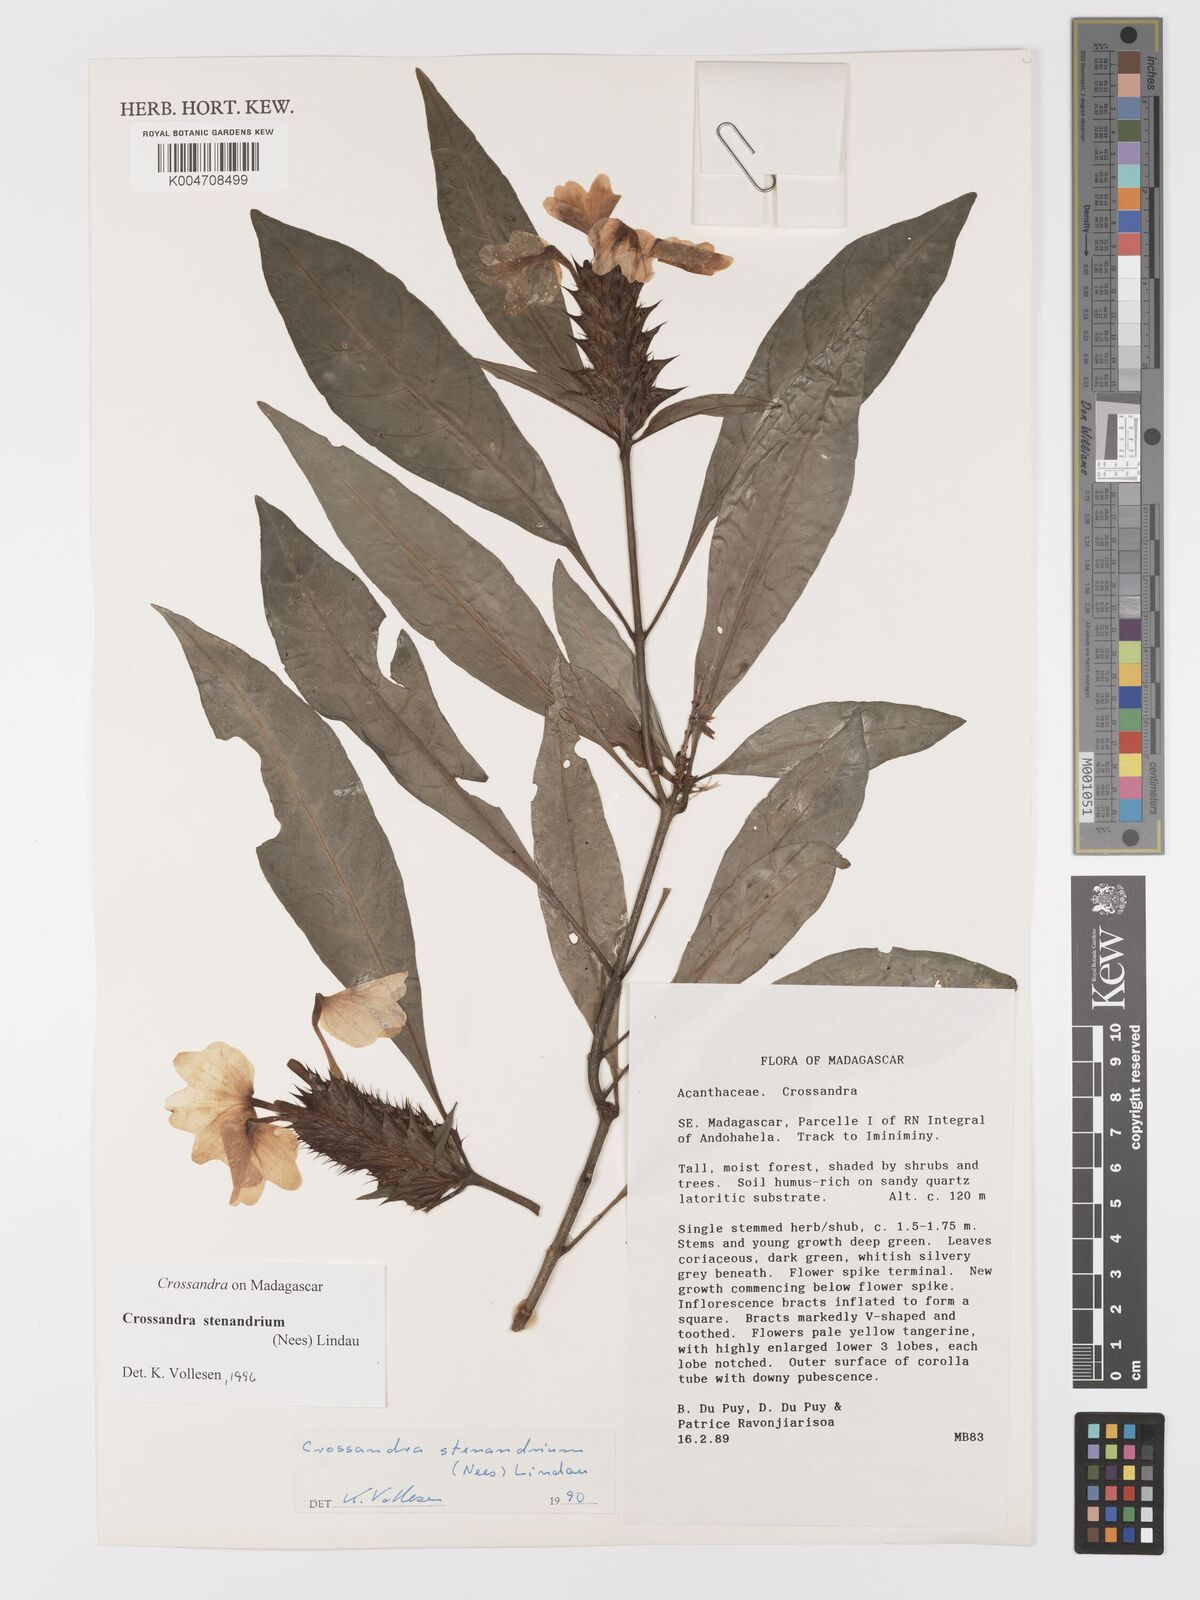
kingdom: Plantae
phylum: Tracheophyta
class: Magnoliopsida
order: Lamiales
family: Acanthaceae
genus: Crossandra
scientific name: Crossandra stenandrium
